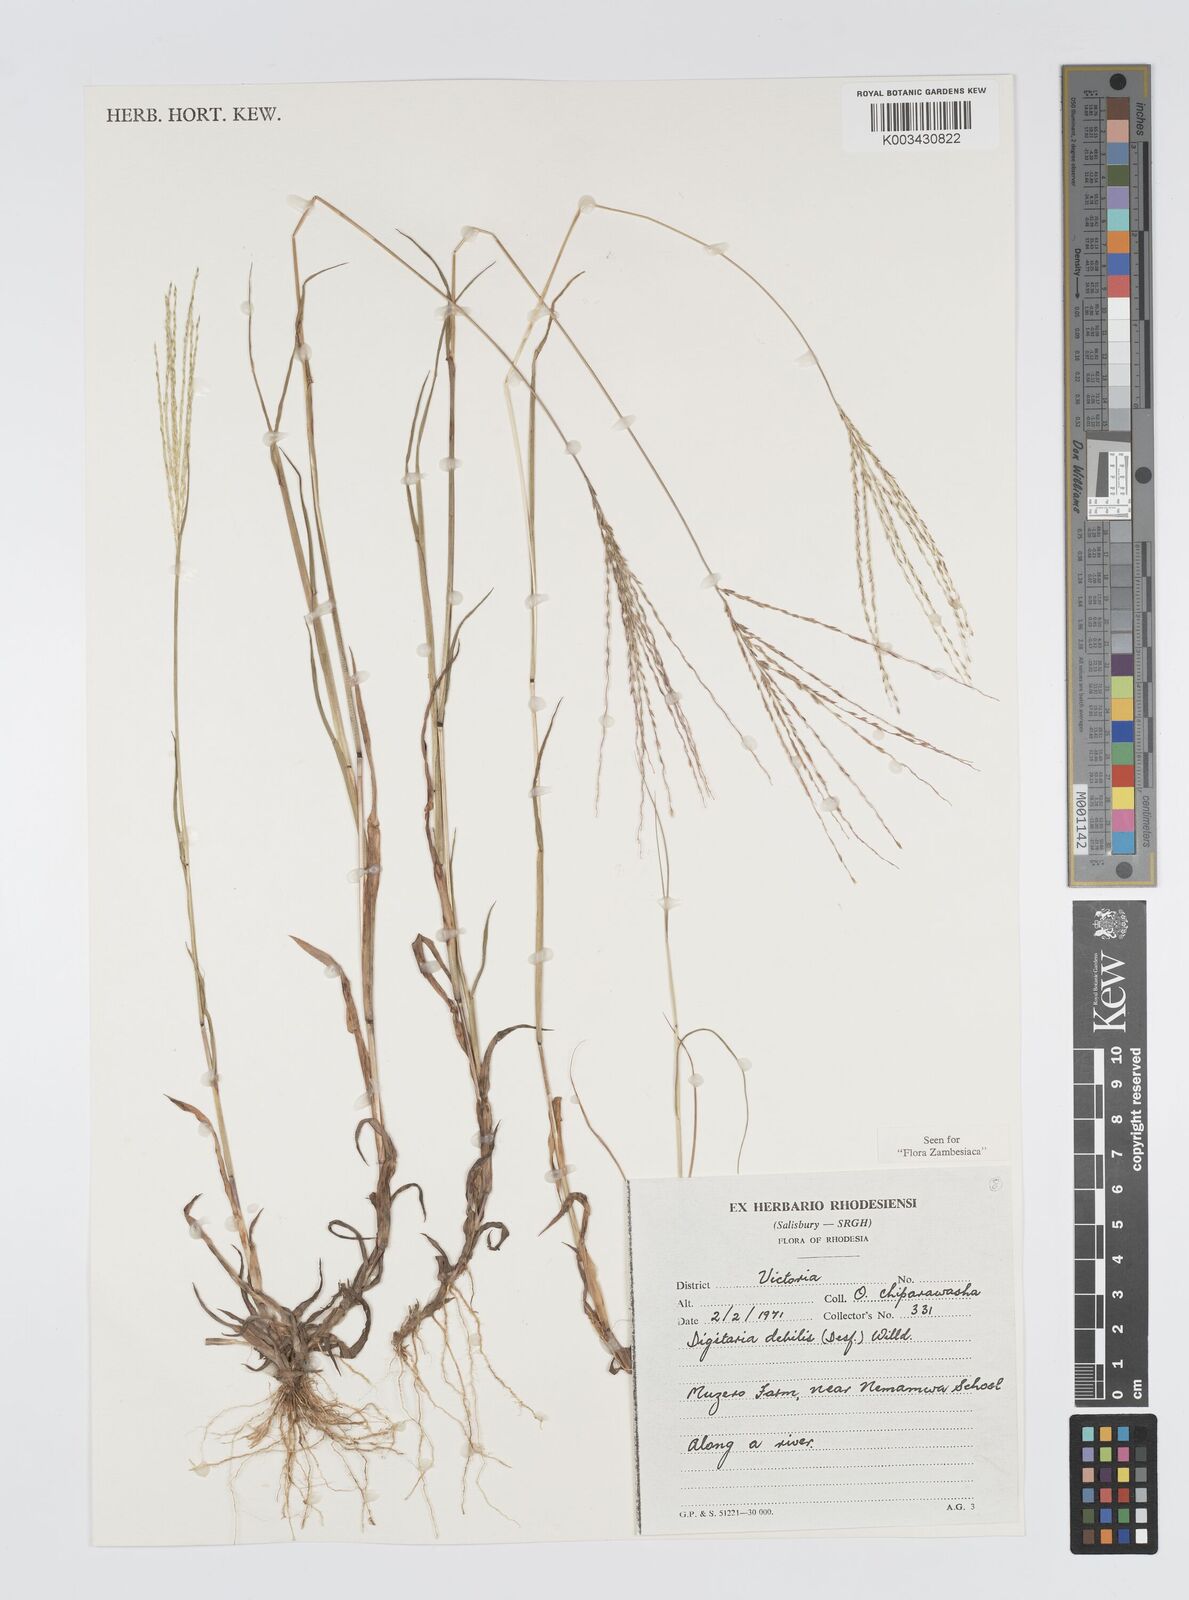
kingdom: Plantae
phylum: Tracheophyta
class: Liliopsida
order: Poales
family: Poaceae
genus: Digitaria
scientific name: Digitaria debilis
